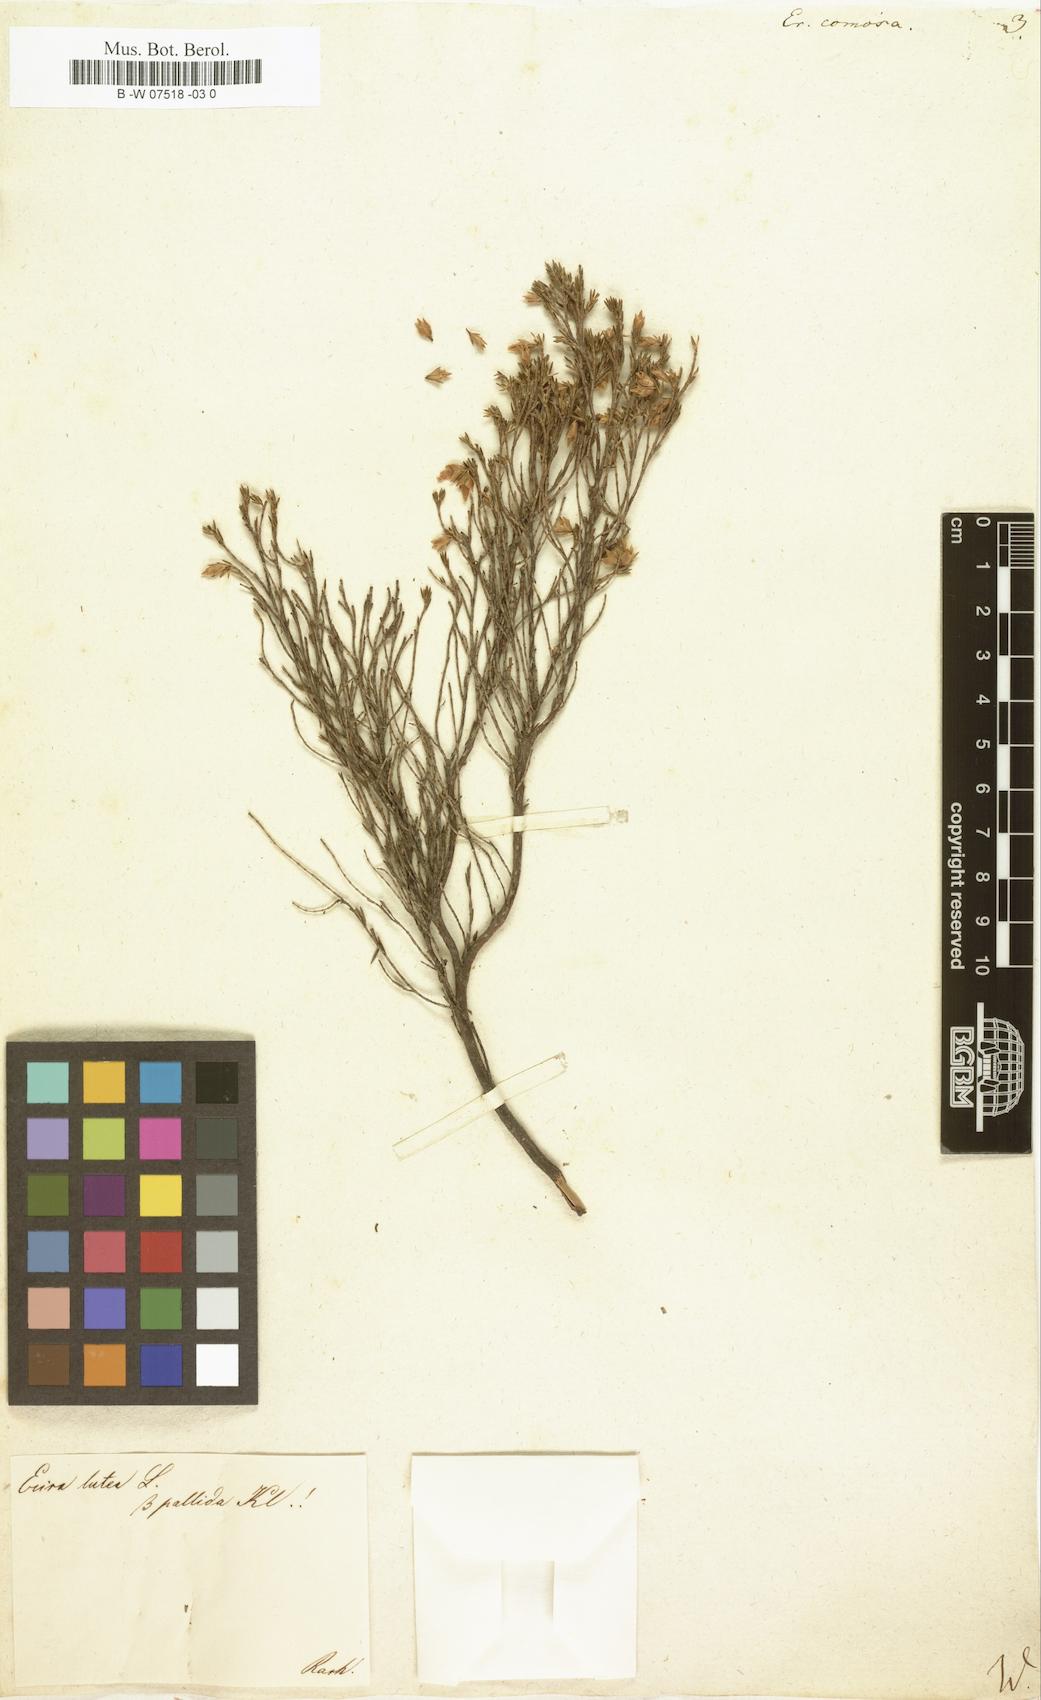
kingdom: Plantae
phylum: Tracheophyta
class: Magnoliopsida
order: Ericales
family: Ericaceae
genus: Erica
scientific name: Erica diaphana
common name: Heath
